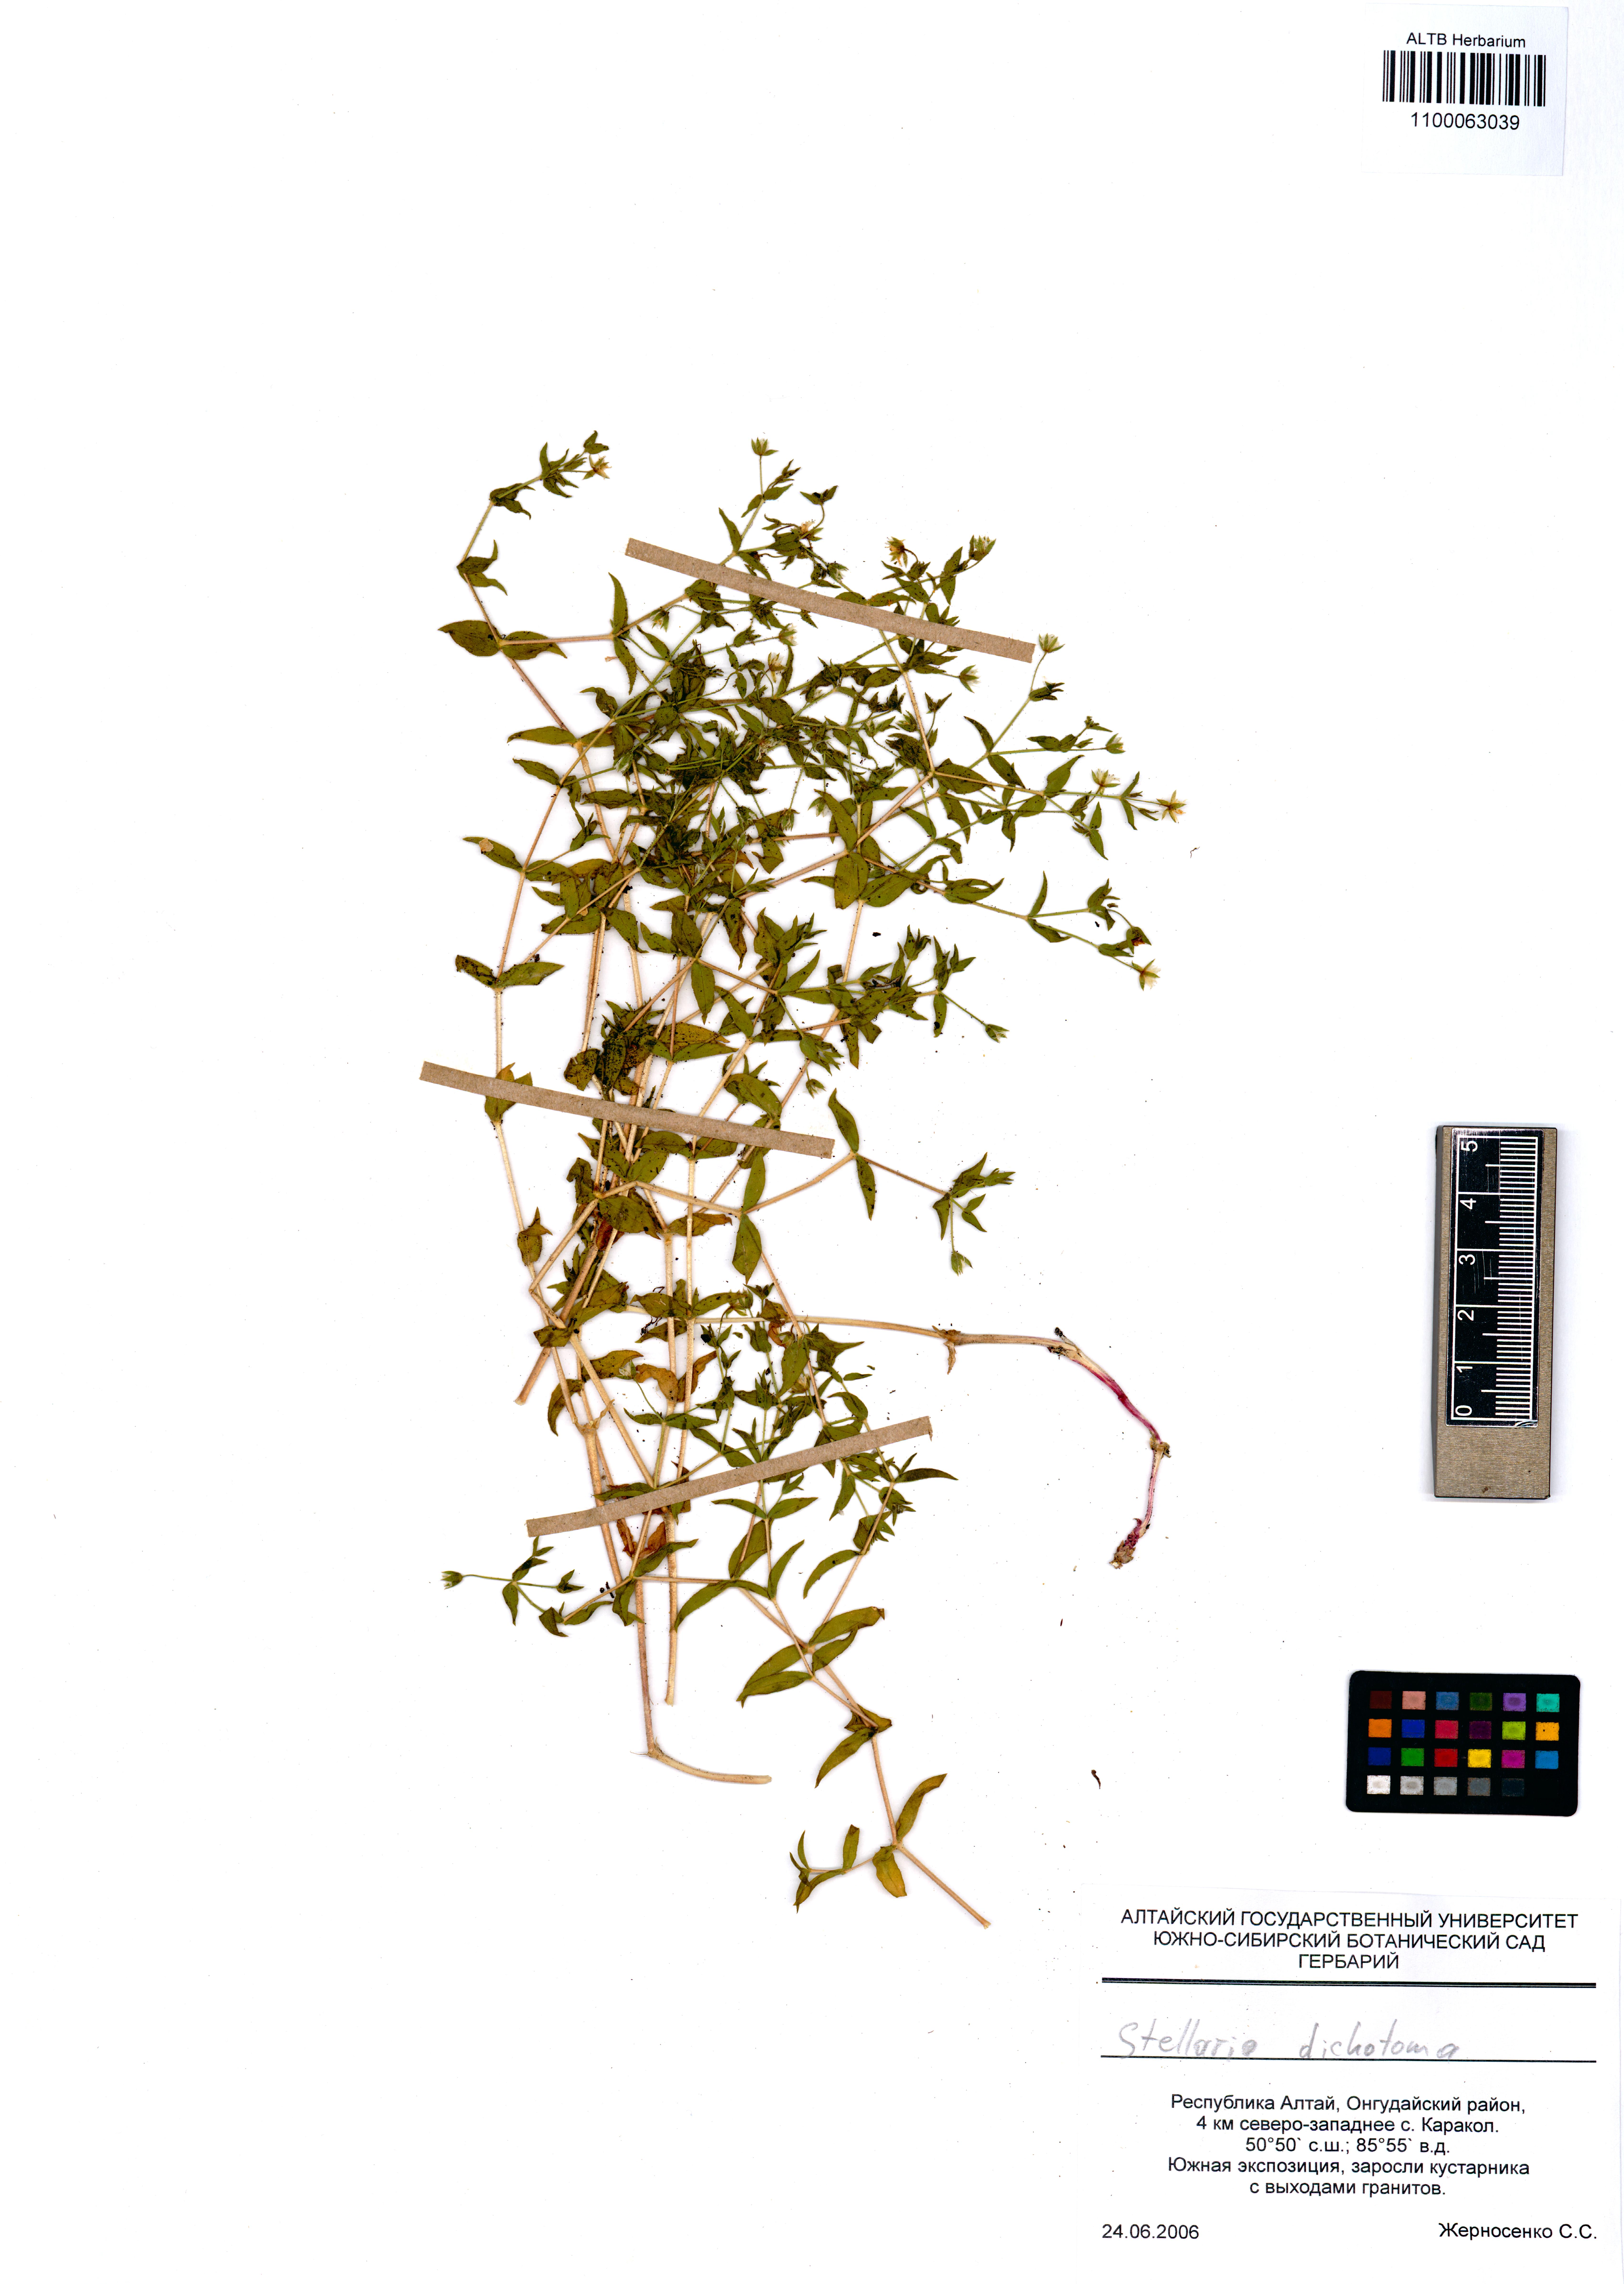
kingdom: Plantae
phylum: Tracheophyta
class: Magnoliopsida
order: Caryophyllales
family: Caryophyllaceae
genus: Mesostemma
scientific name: Mesostemma dichotomum
